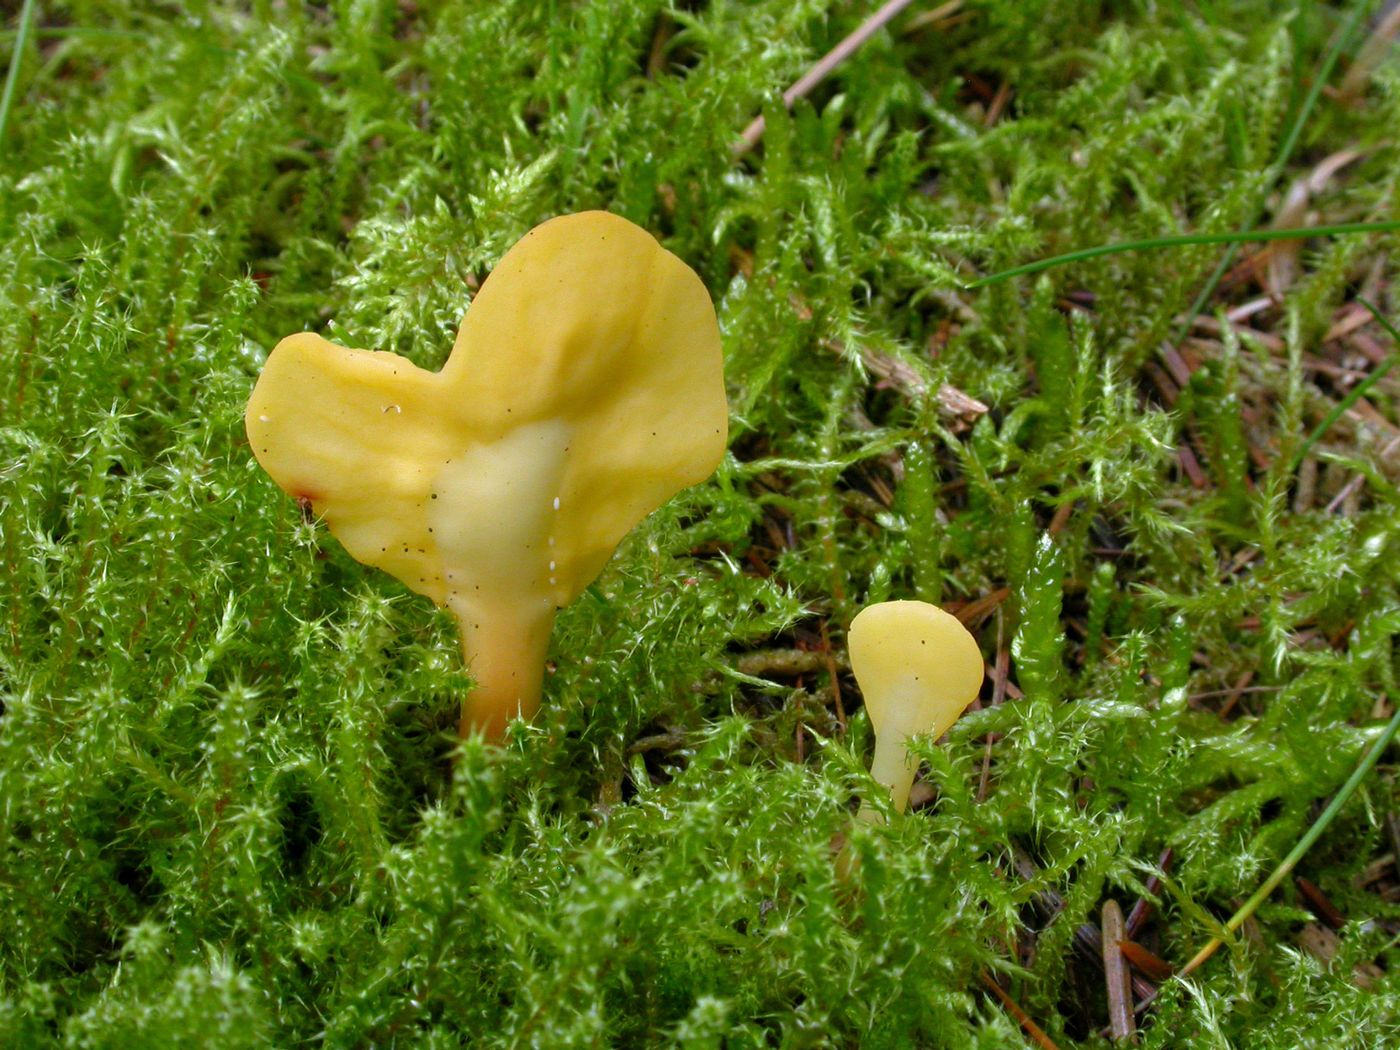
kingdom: Fungi
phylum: Ascomycota
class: Leotiomycetes
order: Rhytismatales
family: Cudoniaceae
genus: Spathularia
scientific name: Spathularia flavida
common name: gul spatelsvamp
